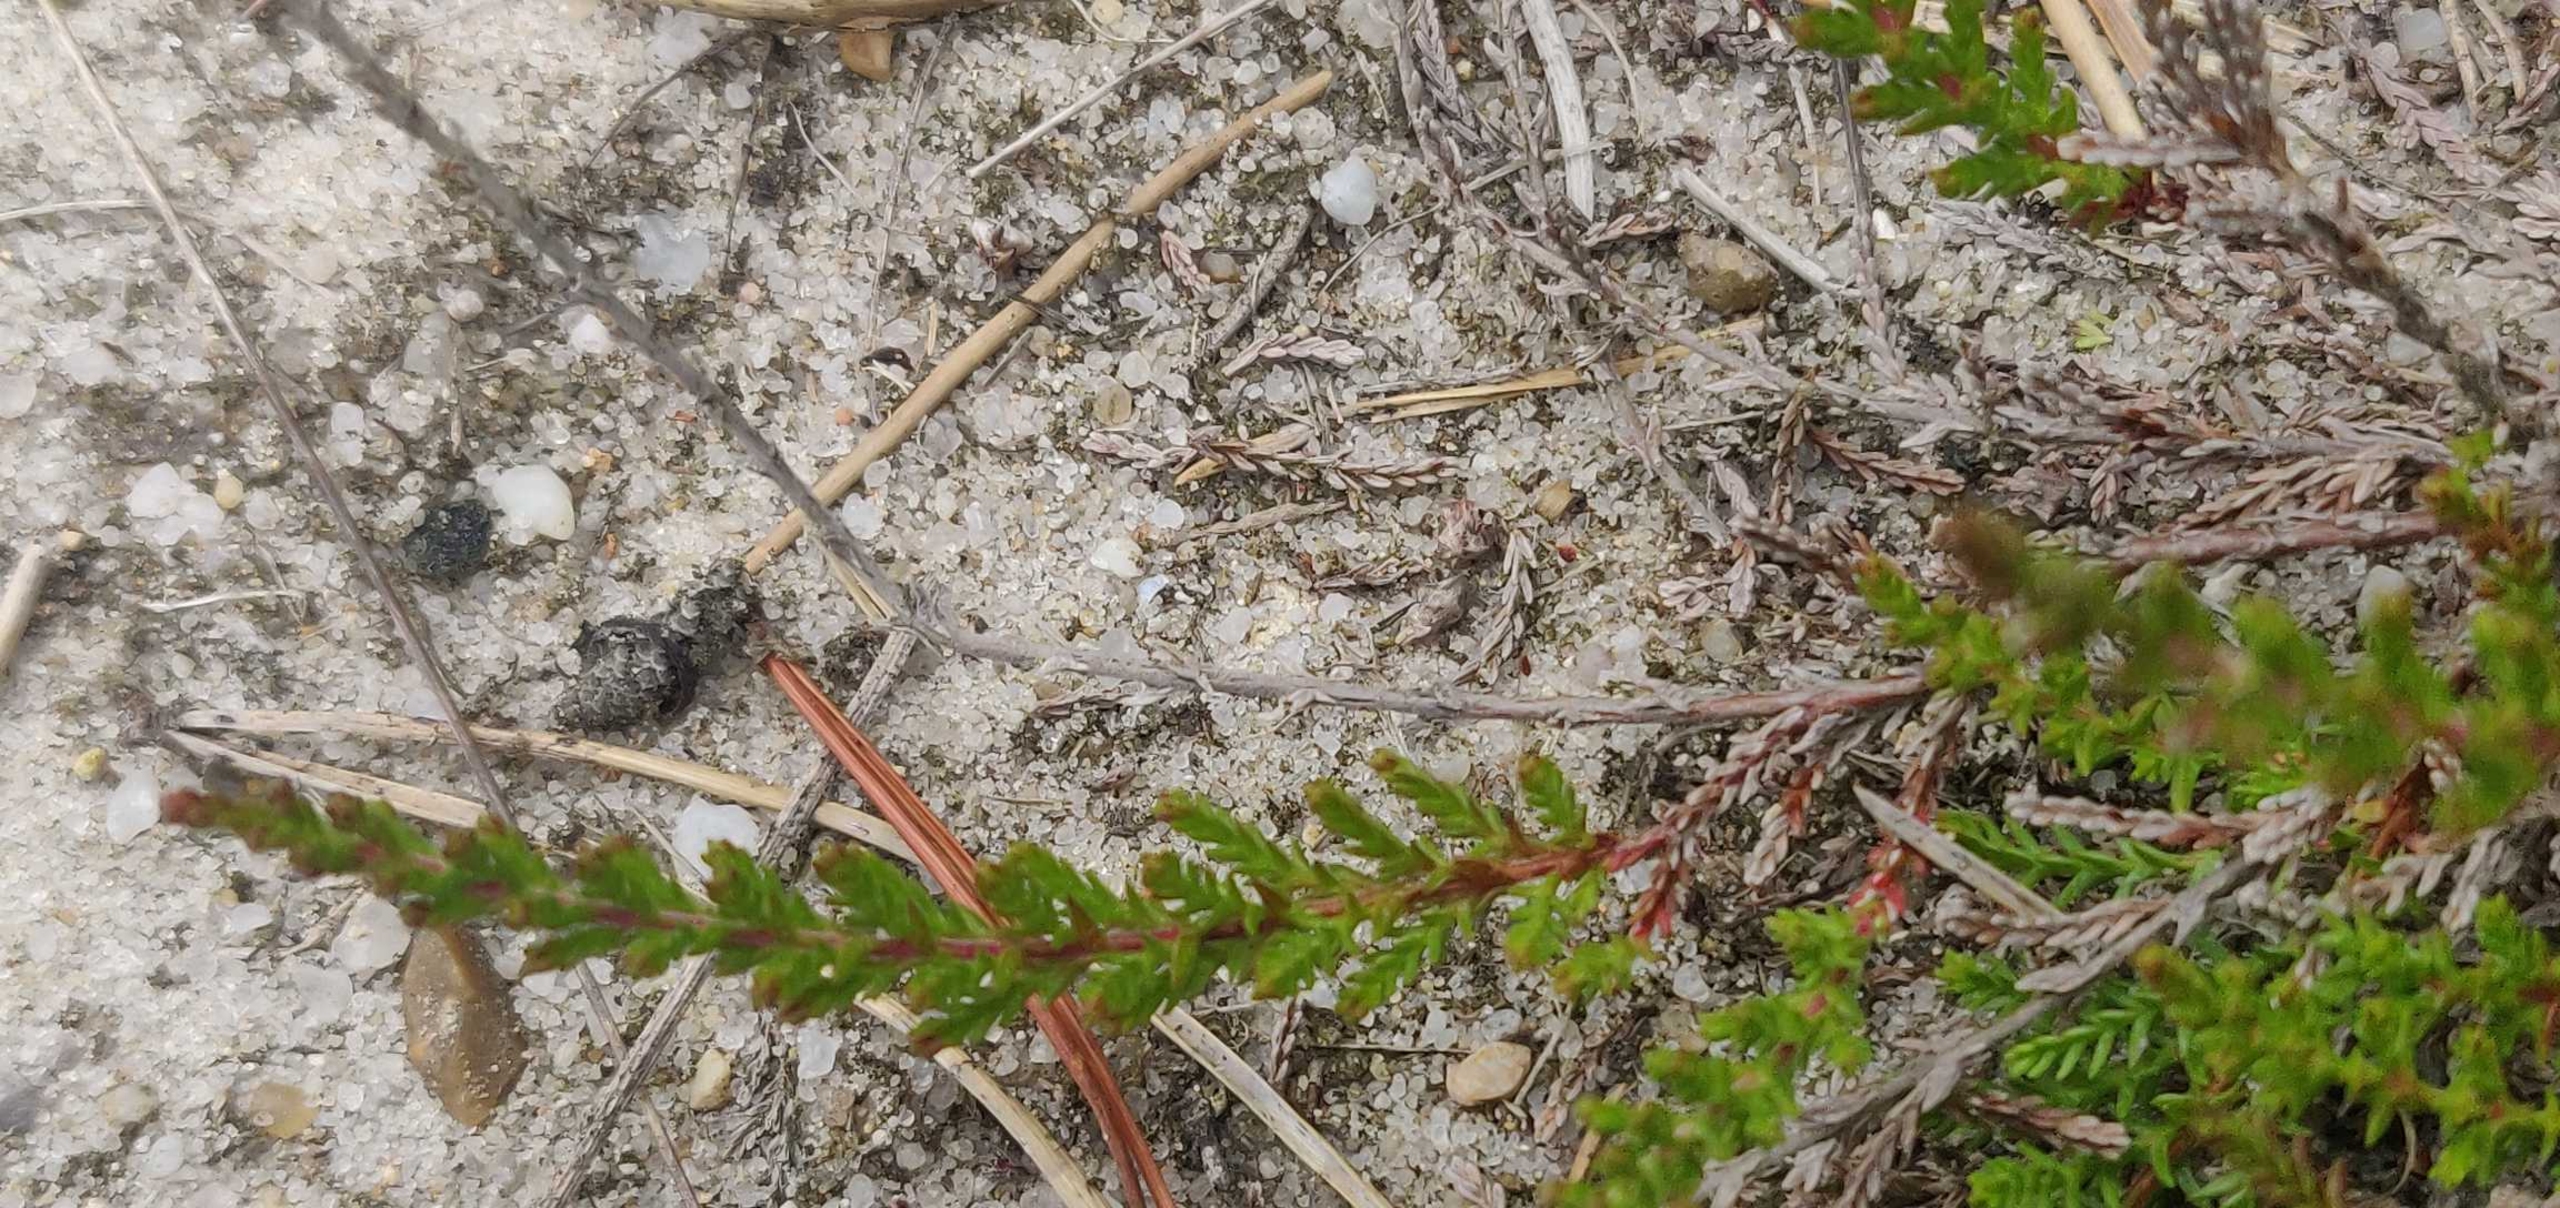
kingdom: Plantae
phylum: Tracheophyta
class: Magnoliopsida
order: Ericales
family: Ericaceae
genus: Calluna
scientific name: Calluna vulgaris
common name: Hedelyng
